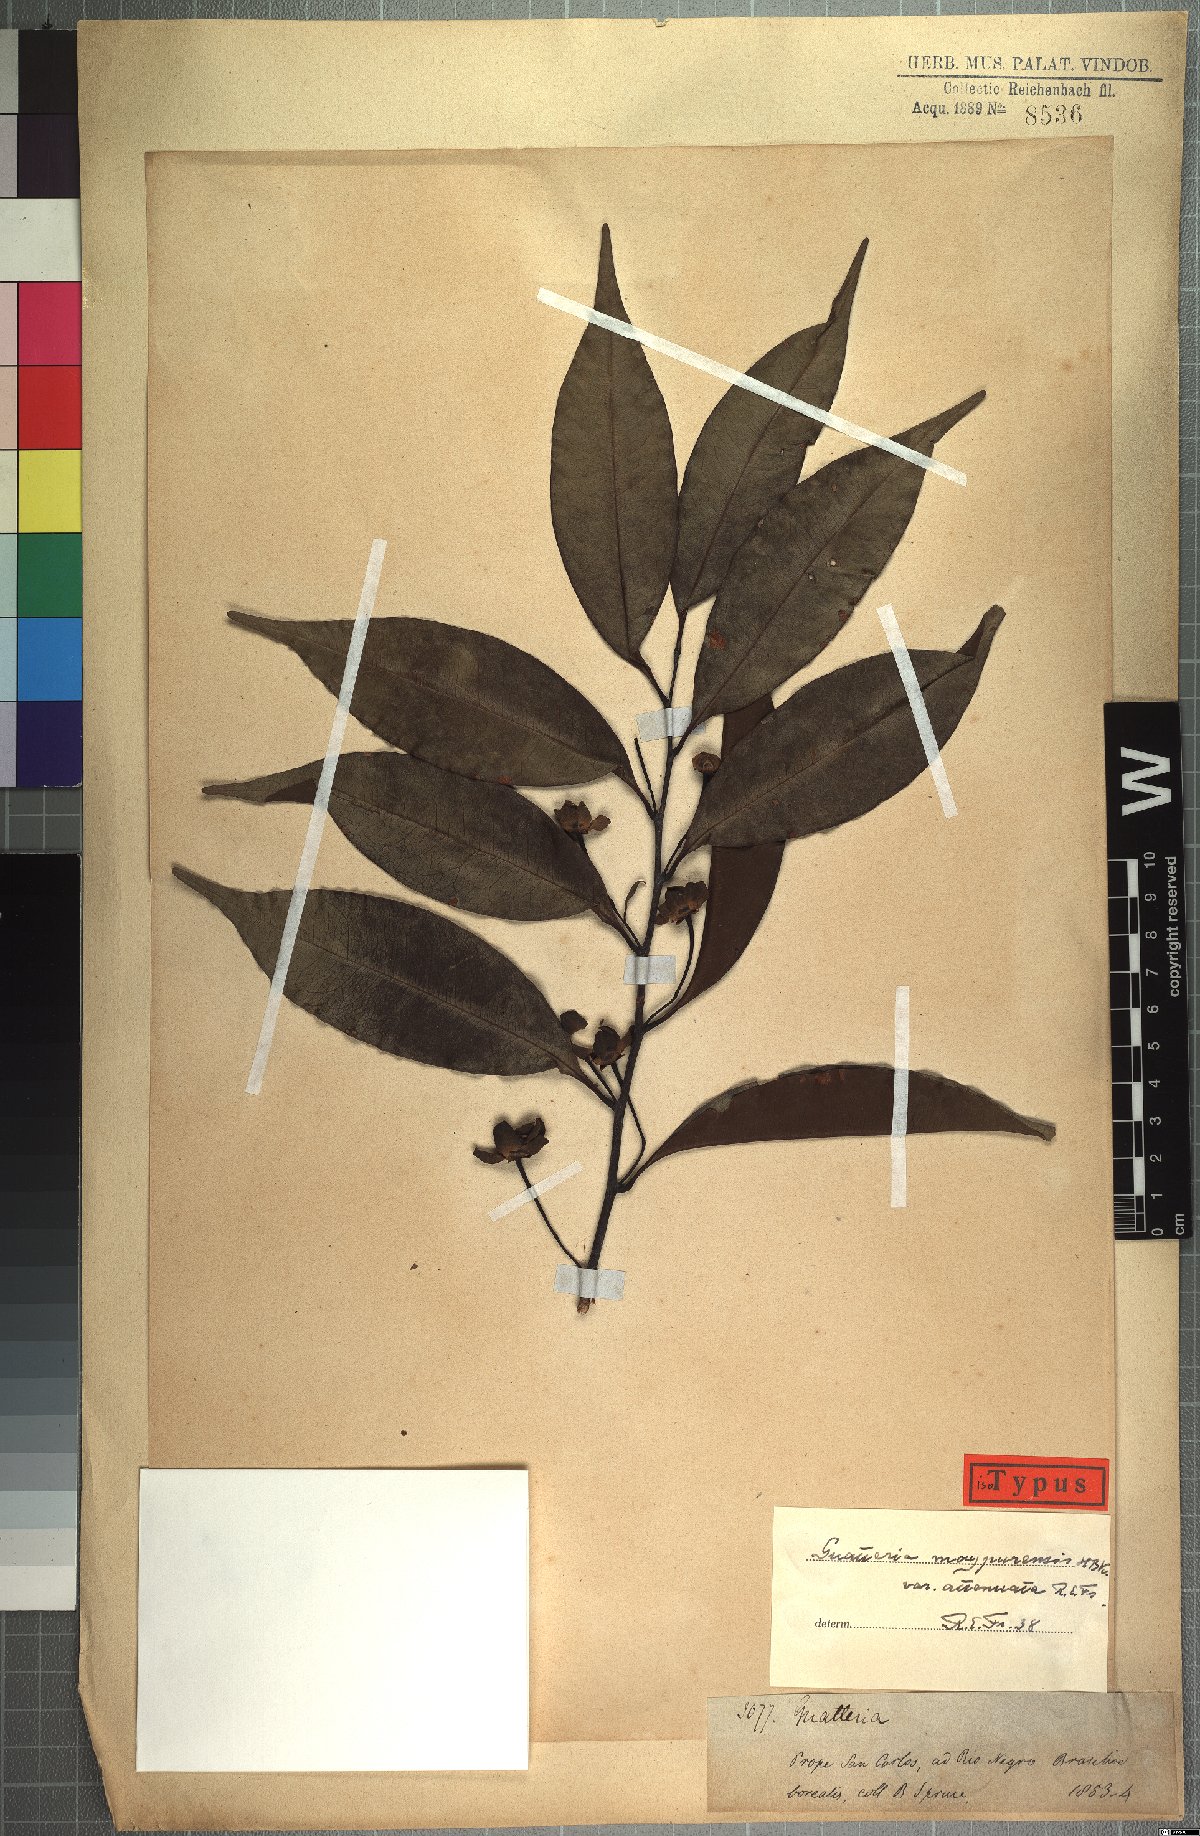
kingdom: Plantae
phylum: Tracheophyta
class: Magnoliopsida
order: Magnoliales
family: Annonaceae
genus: Guatteria
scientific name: Guatteria maypurensis
